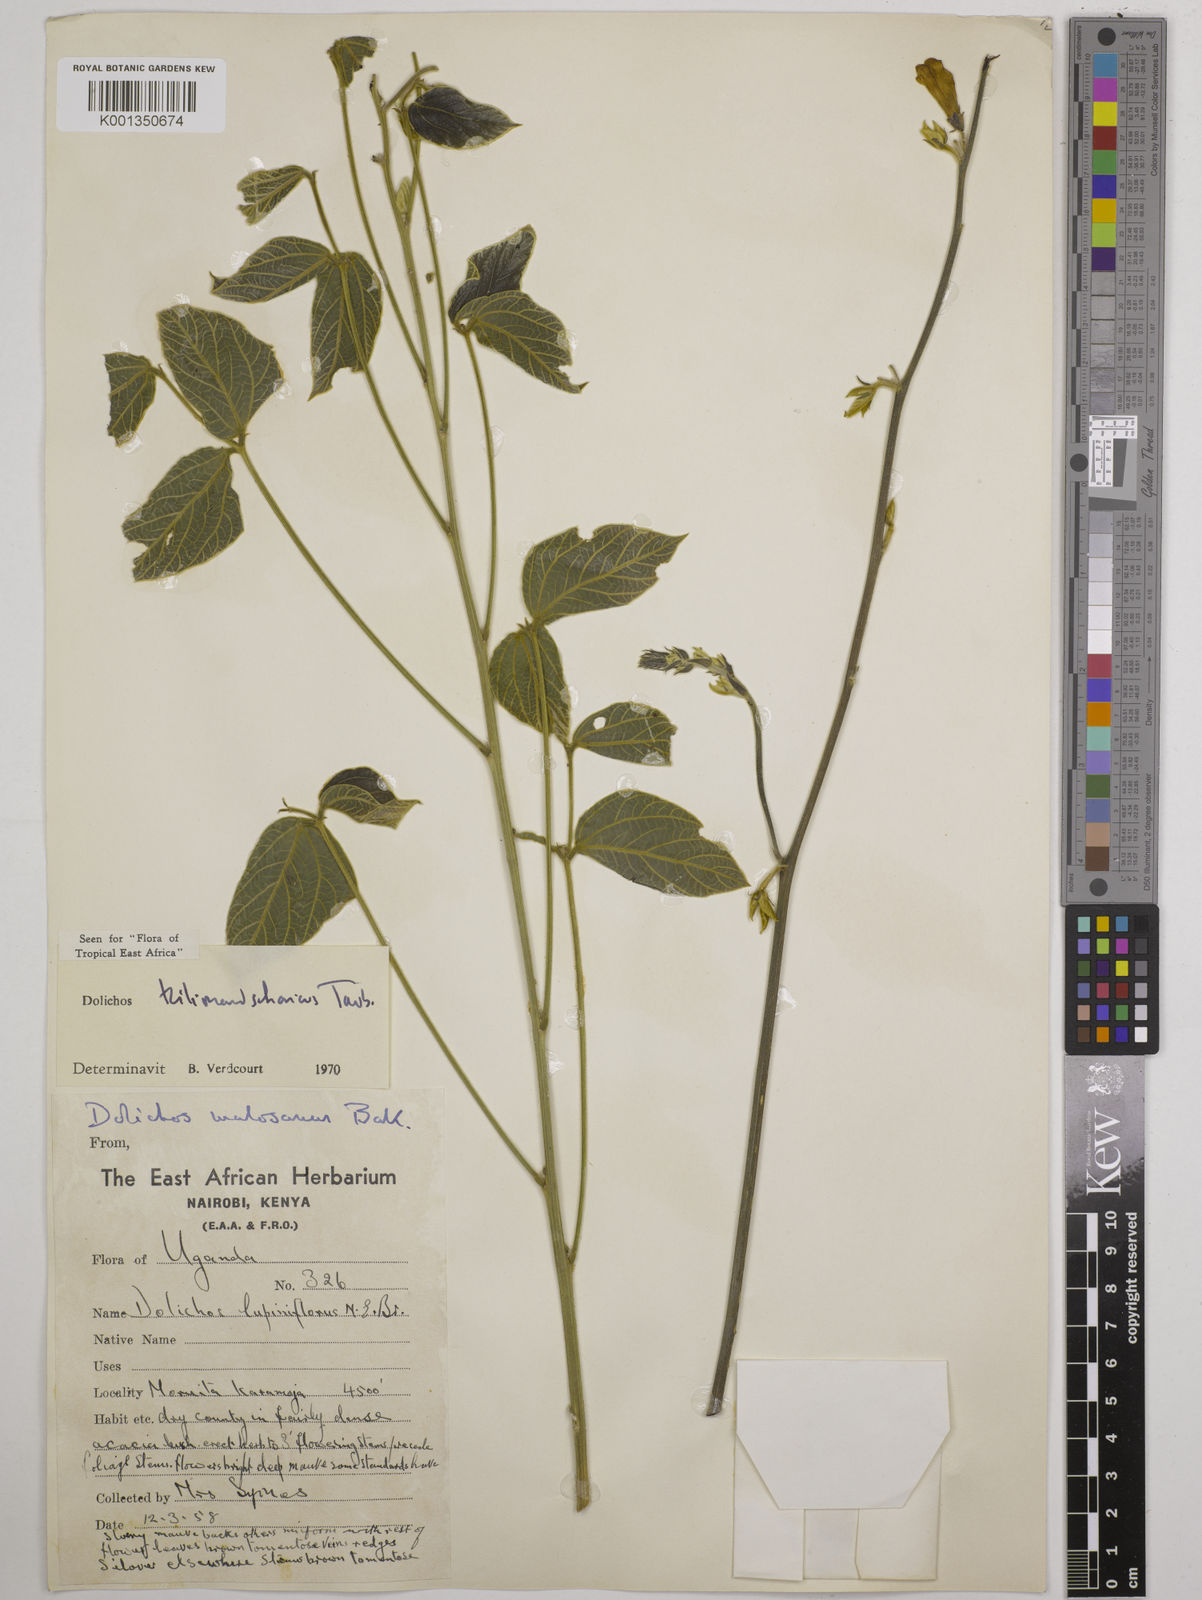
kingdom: Plantae
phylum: Tracheophyta
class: Magnoliopsida
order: Fabales
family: Fabaceae
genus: Dolichos
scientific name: Dolichos kilimandscharicus
